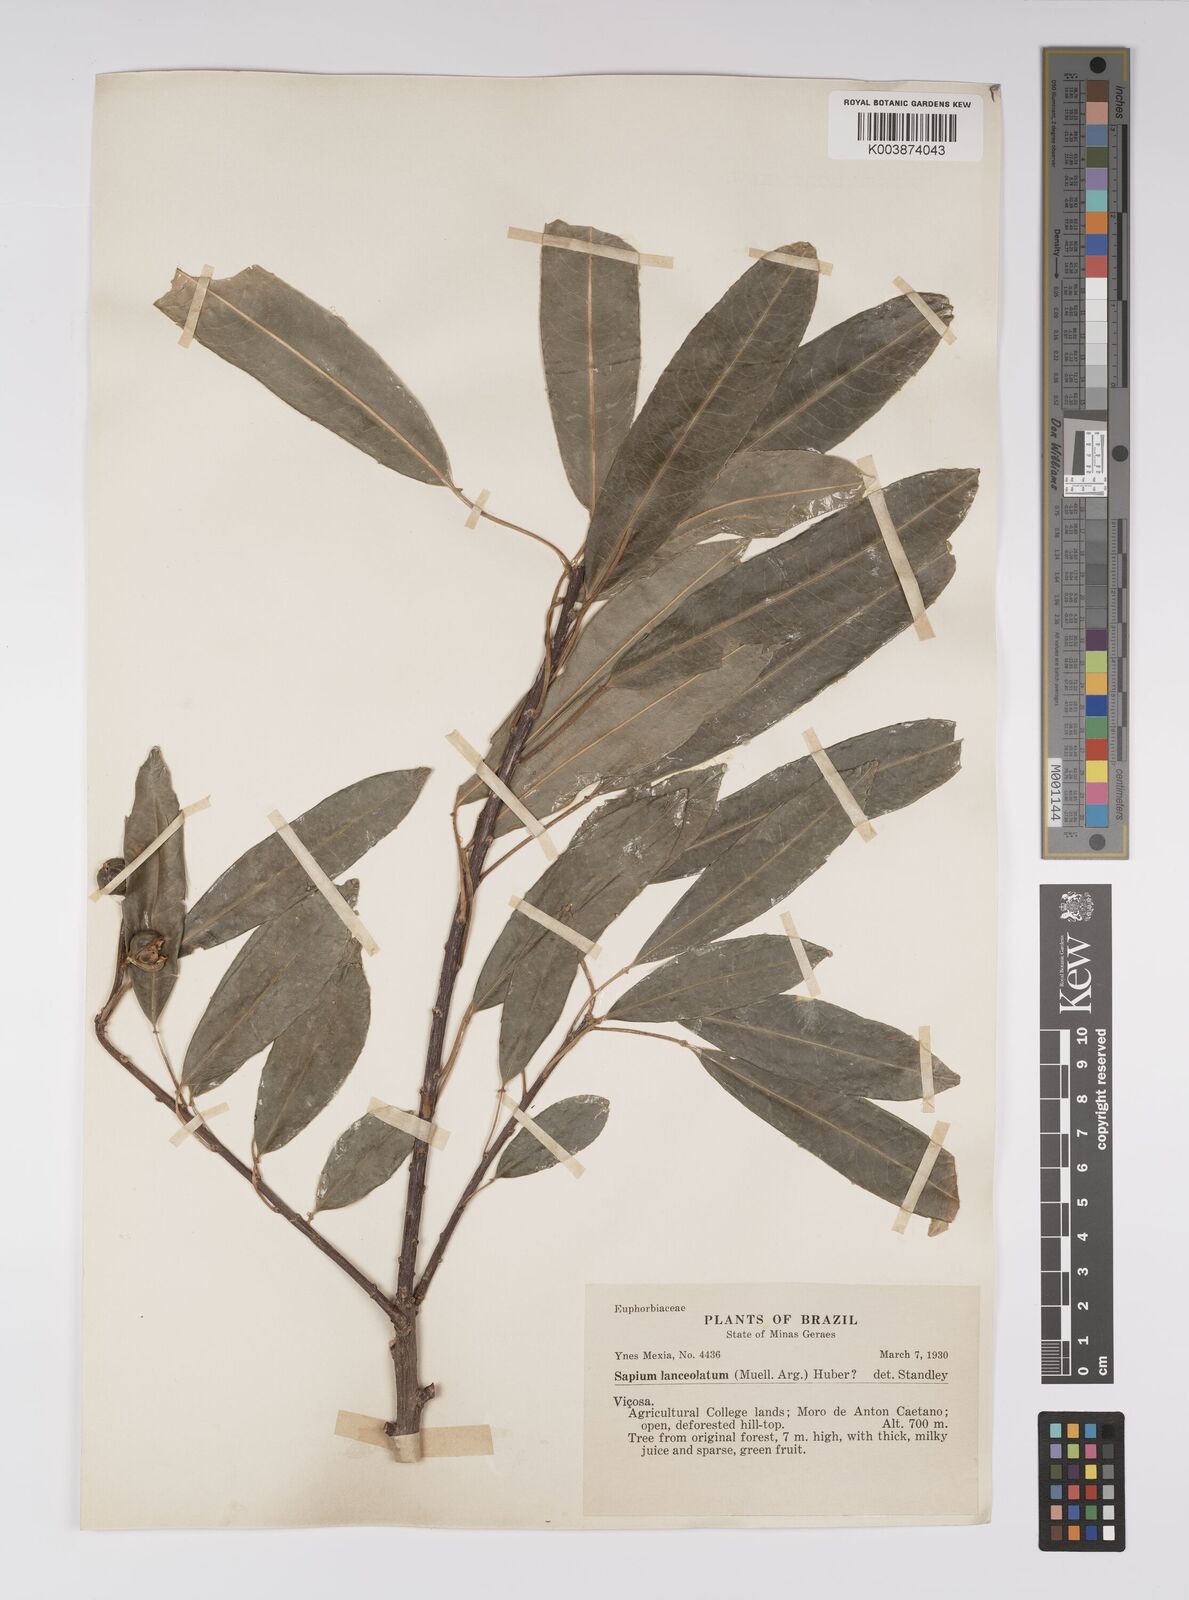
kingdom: Plantae
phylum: Tracheophyta
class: Magnoliopsida
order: Malpighiales
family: Euphorbiaceae
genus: Sapium
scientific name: Sapium glandulosum
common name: Milktree
